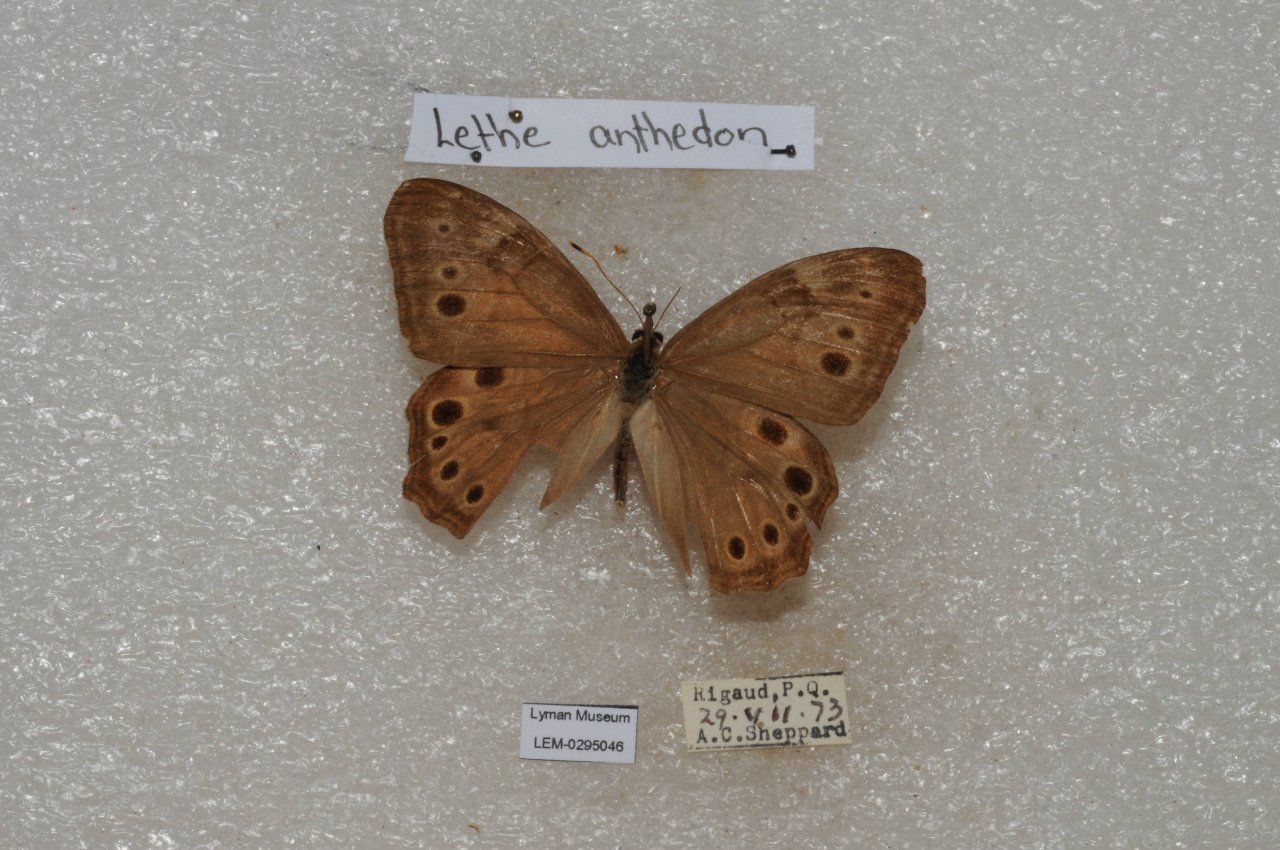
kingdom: Animalia
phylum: Arthropoda
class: Insecta
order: Lepidoptera
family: Nymphalidae
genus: Lethe
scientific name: Lethe anthedon
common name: Northern Pearly-Eye
